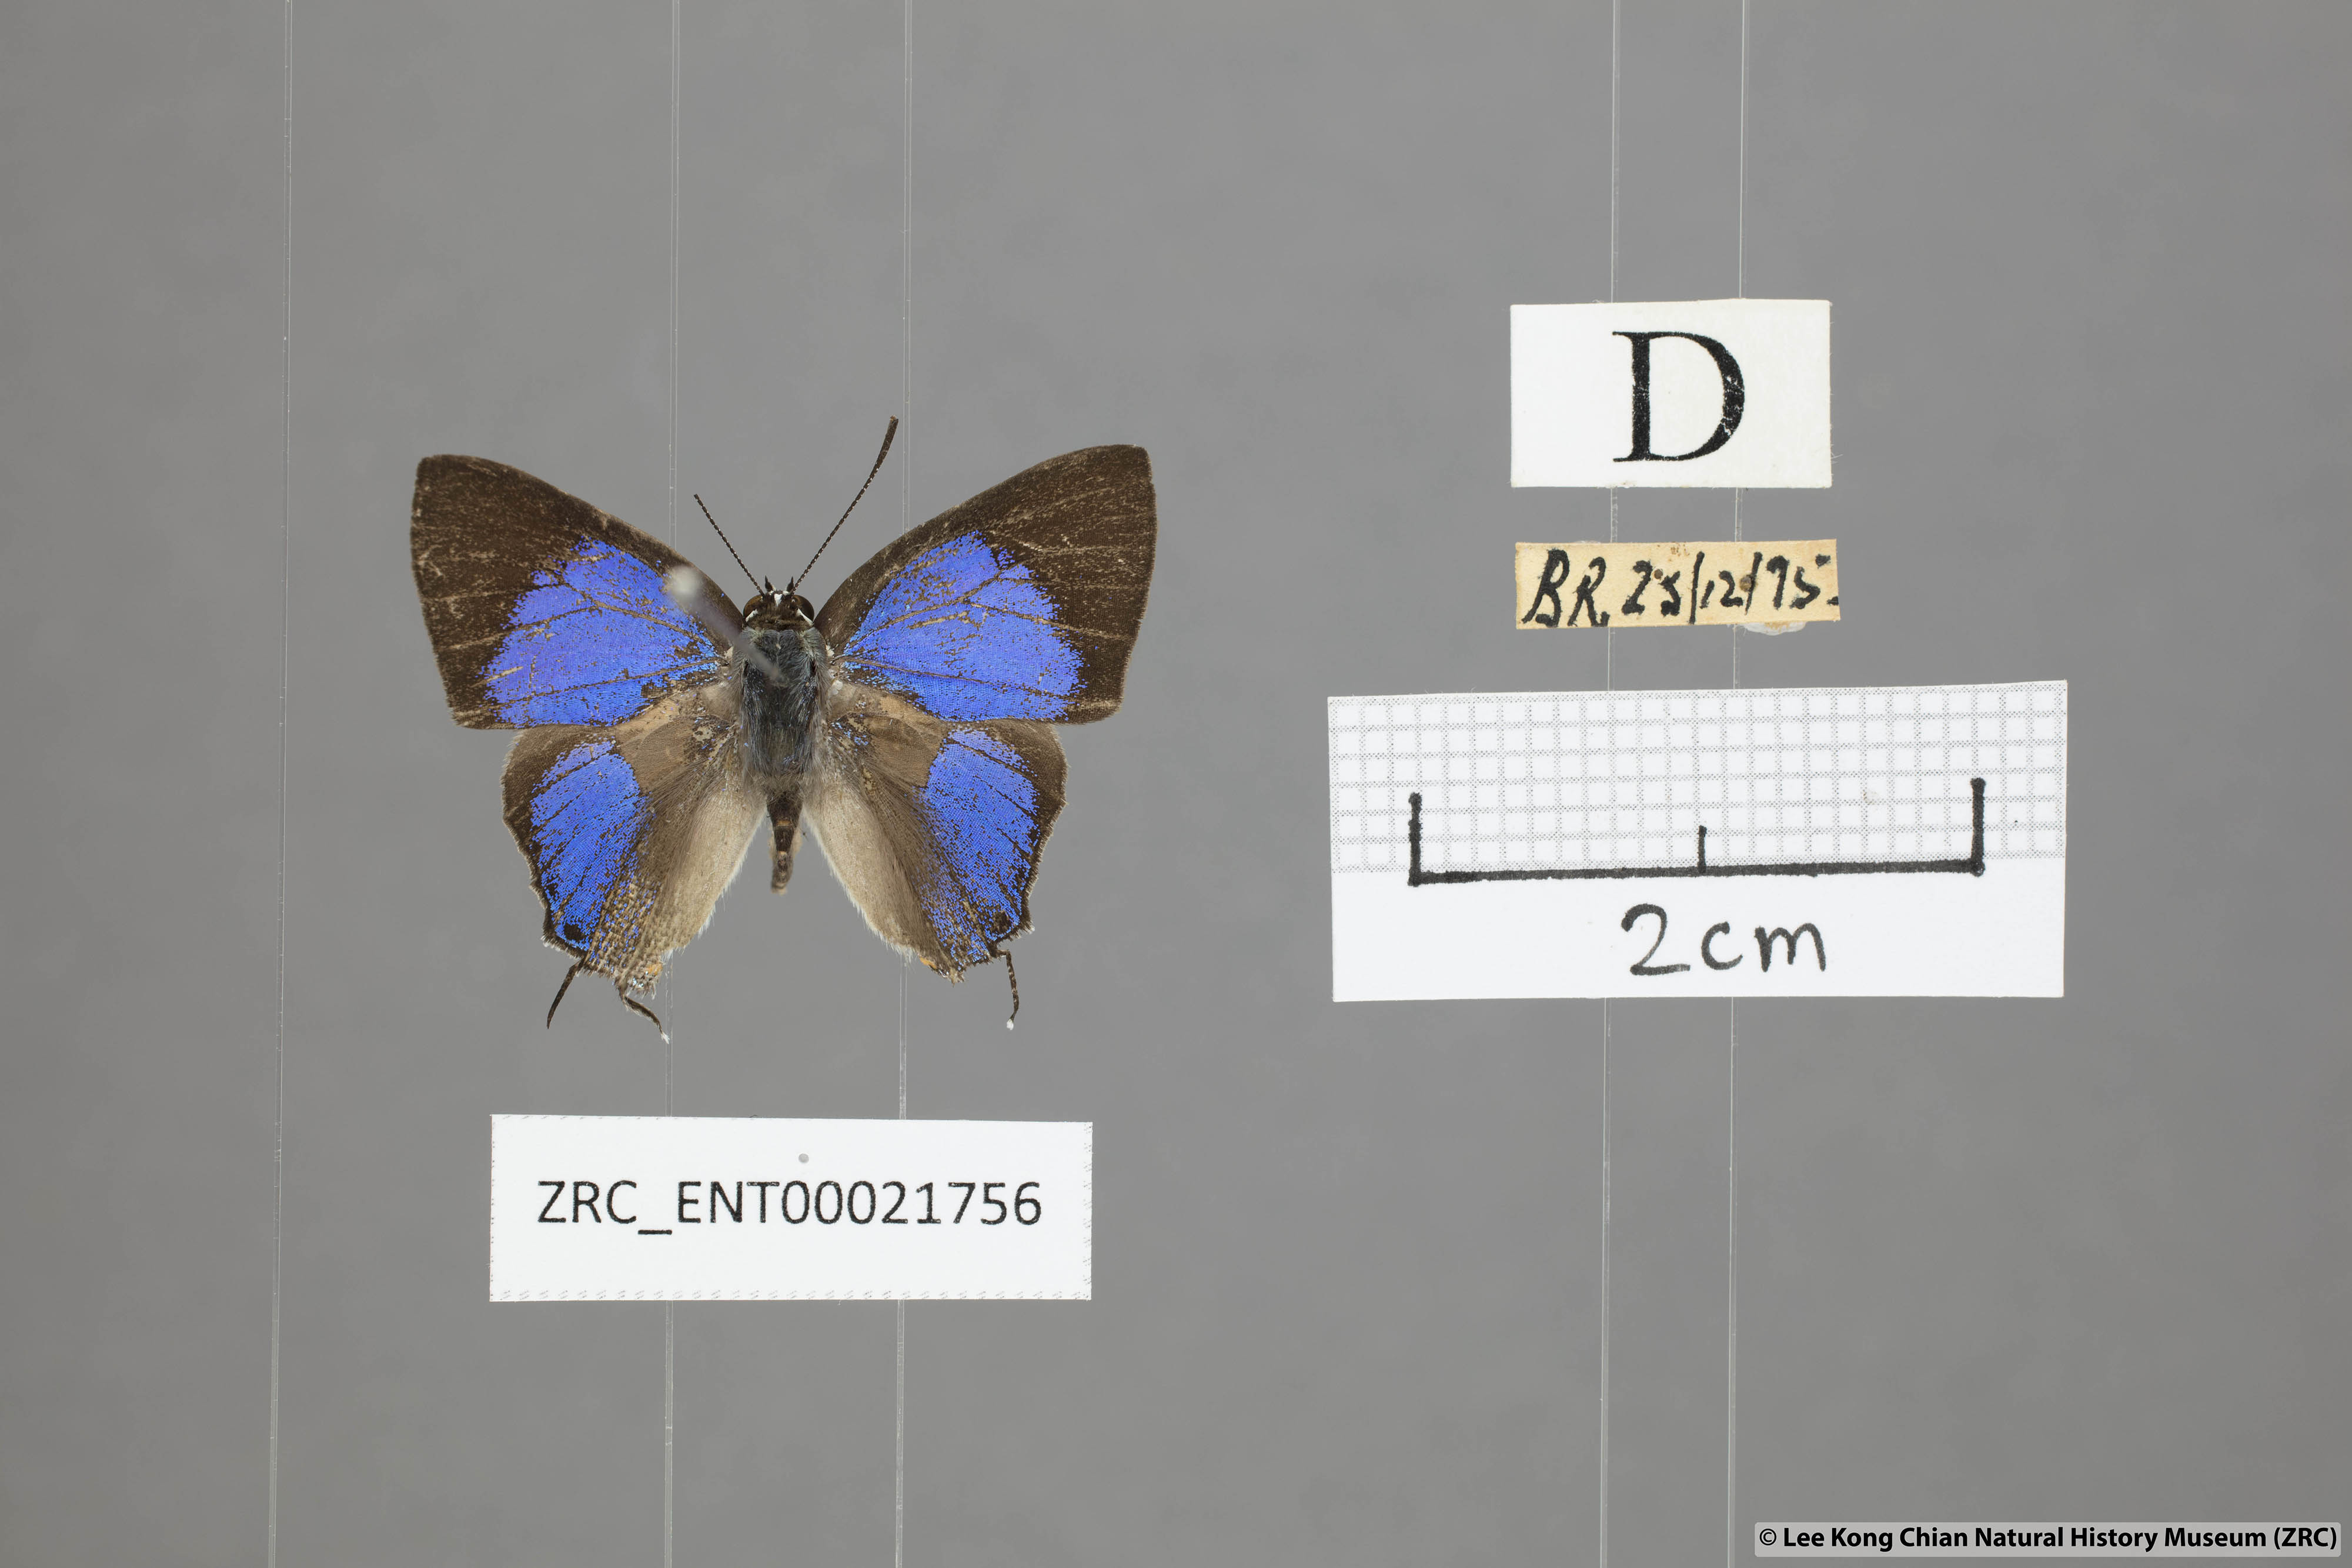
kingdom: Animalia
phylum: Arthropoda
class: Insecta
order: Lepidoptera
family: Lycaenidae
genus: Pratapa
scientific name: Pratapa
